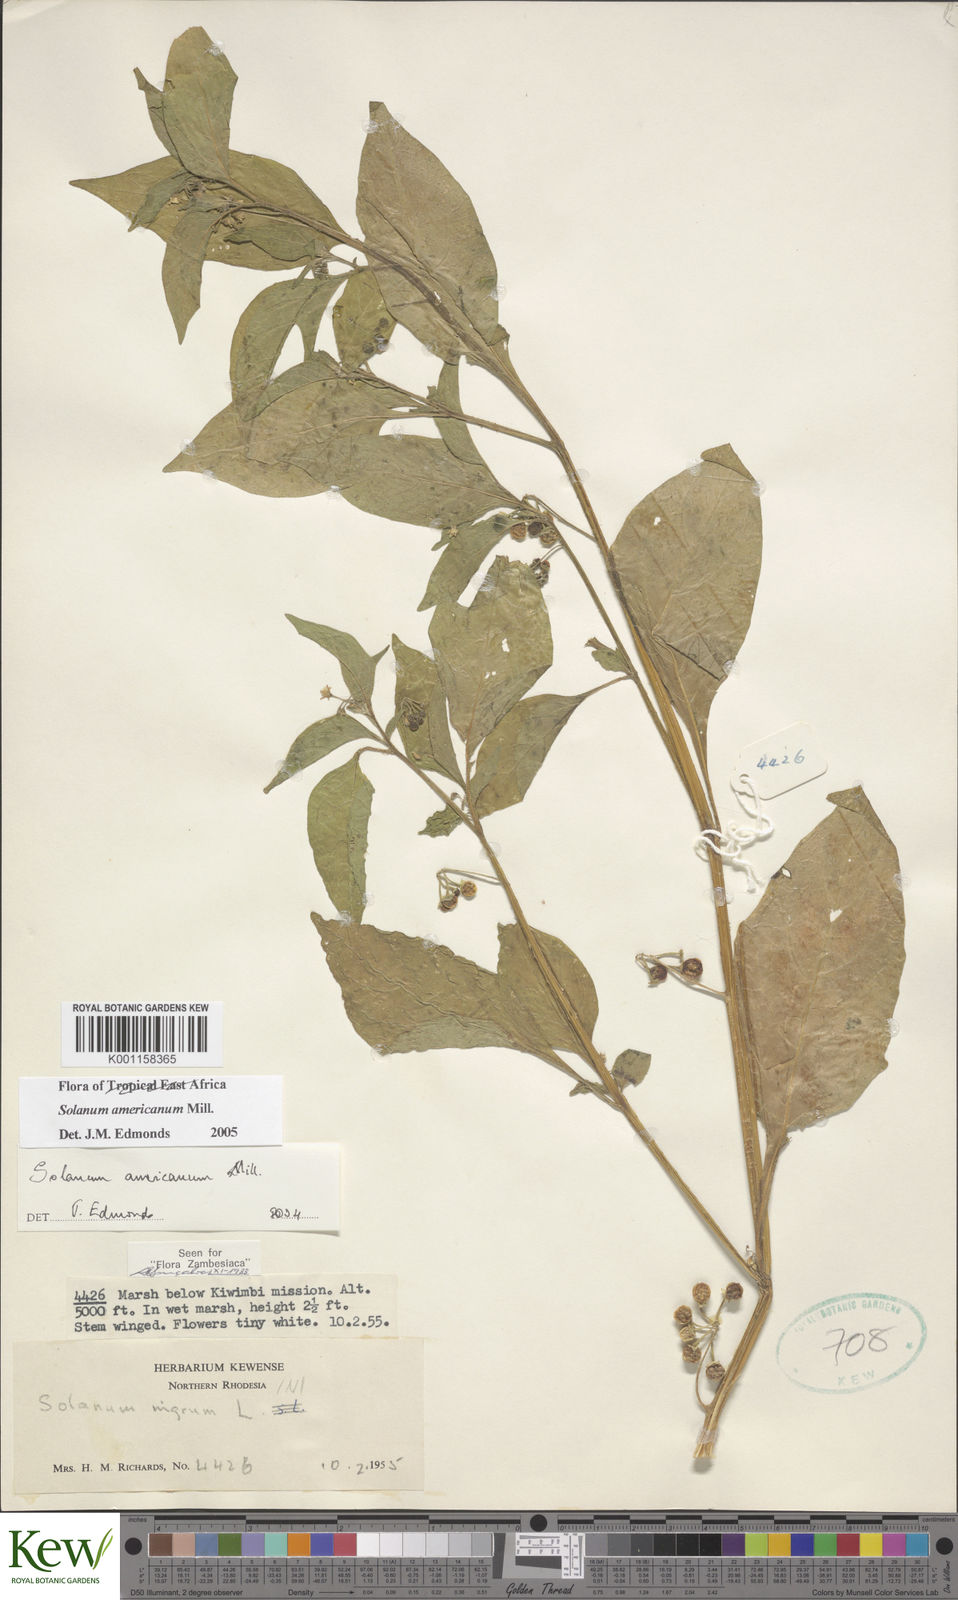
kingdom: Plantae
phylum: Tracheophyta
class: Magnoliopsida
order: Solanales
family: Solanaceae
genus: Solanum
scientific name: Solanum americanum
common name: American black nightshade
